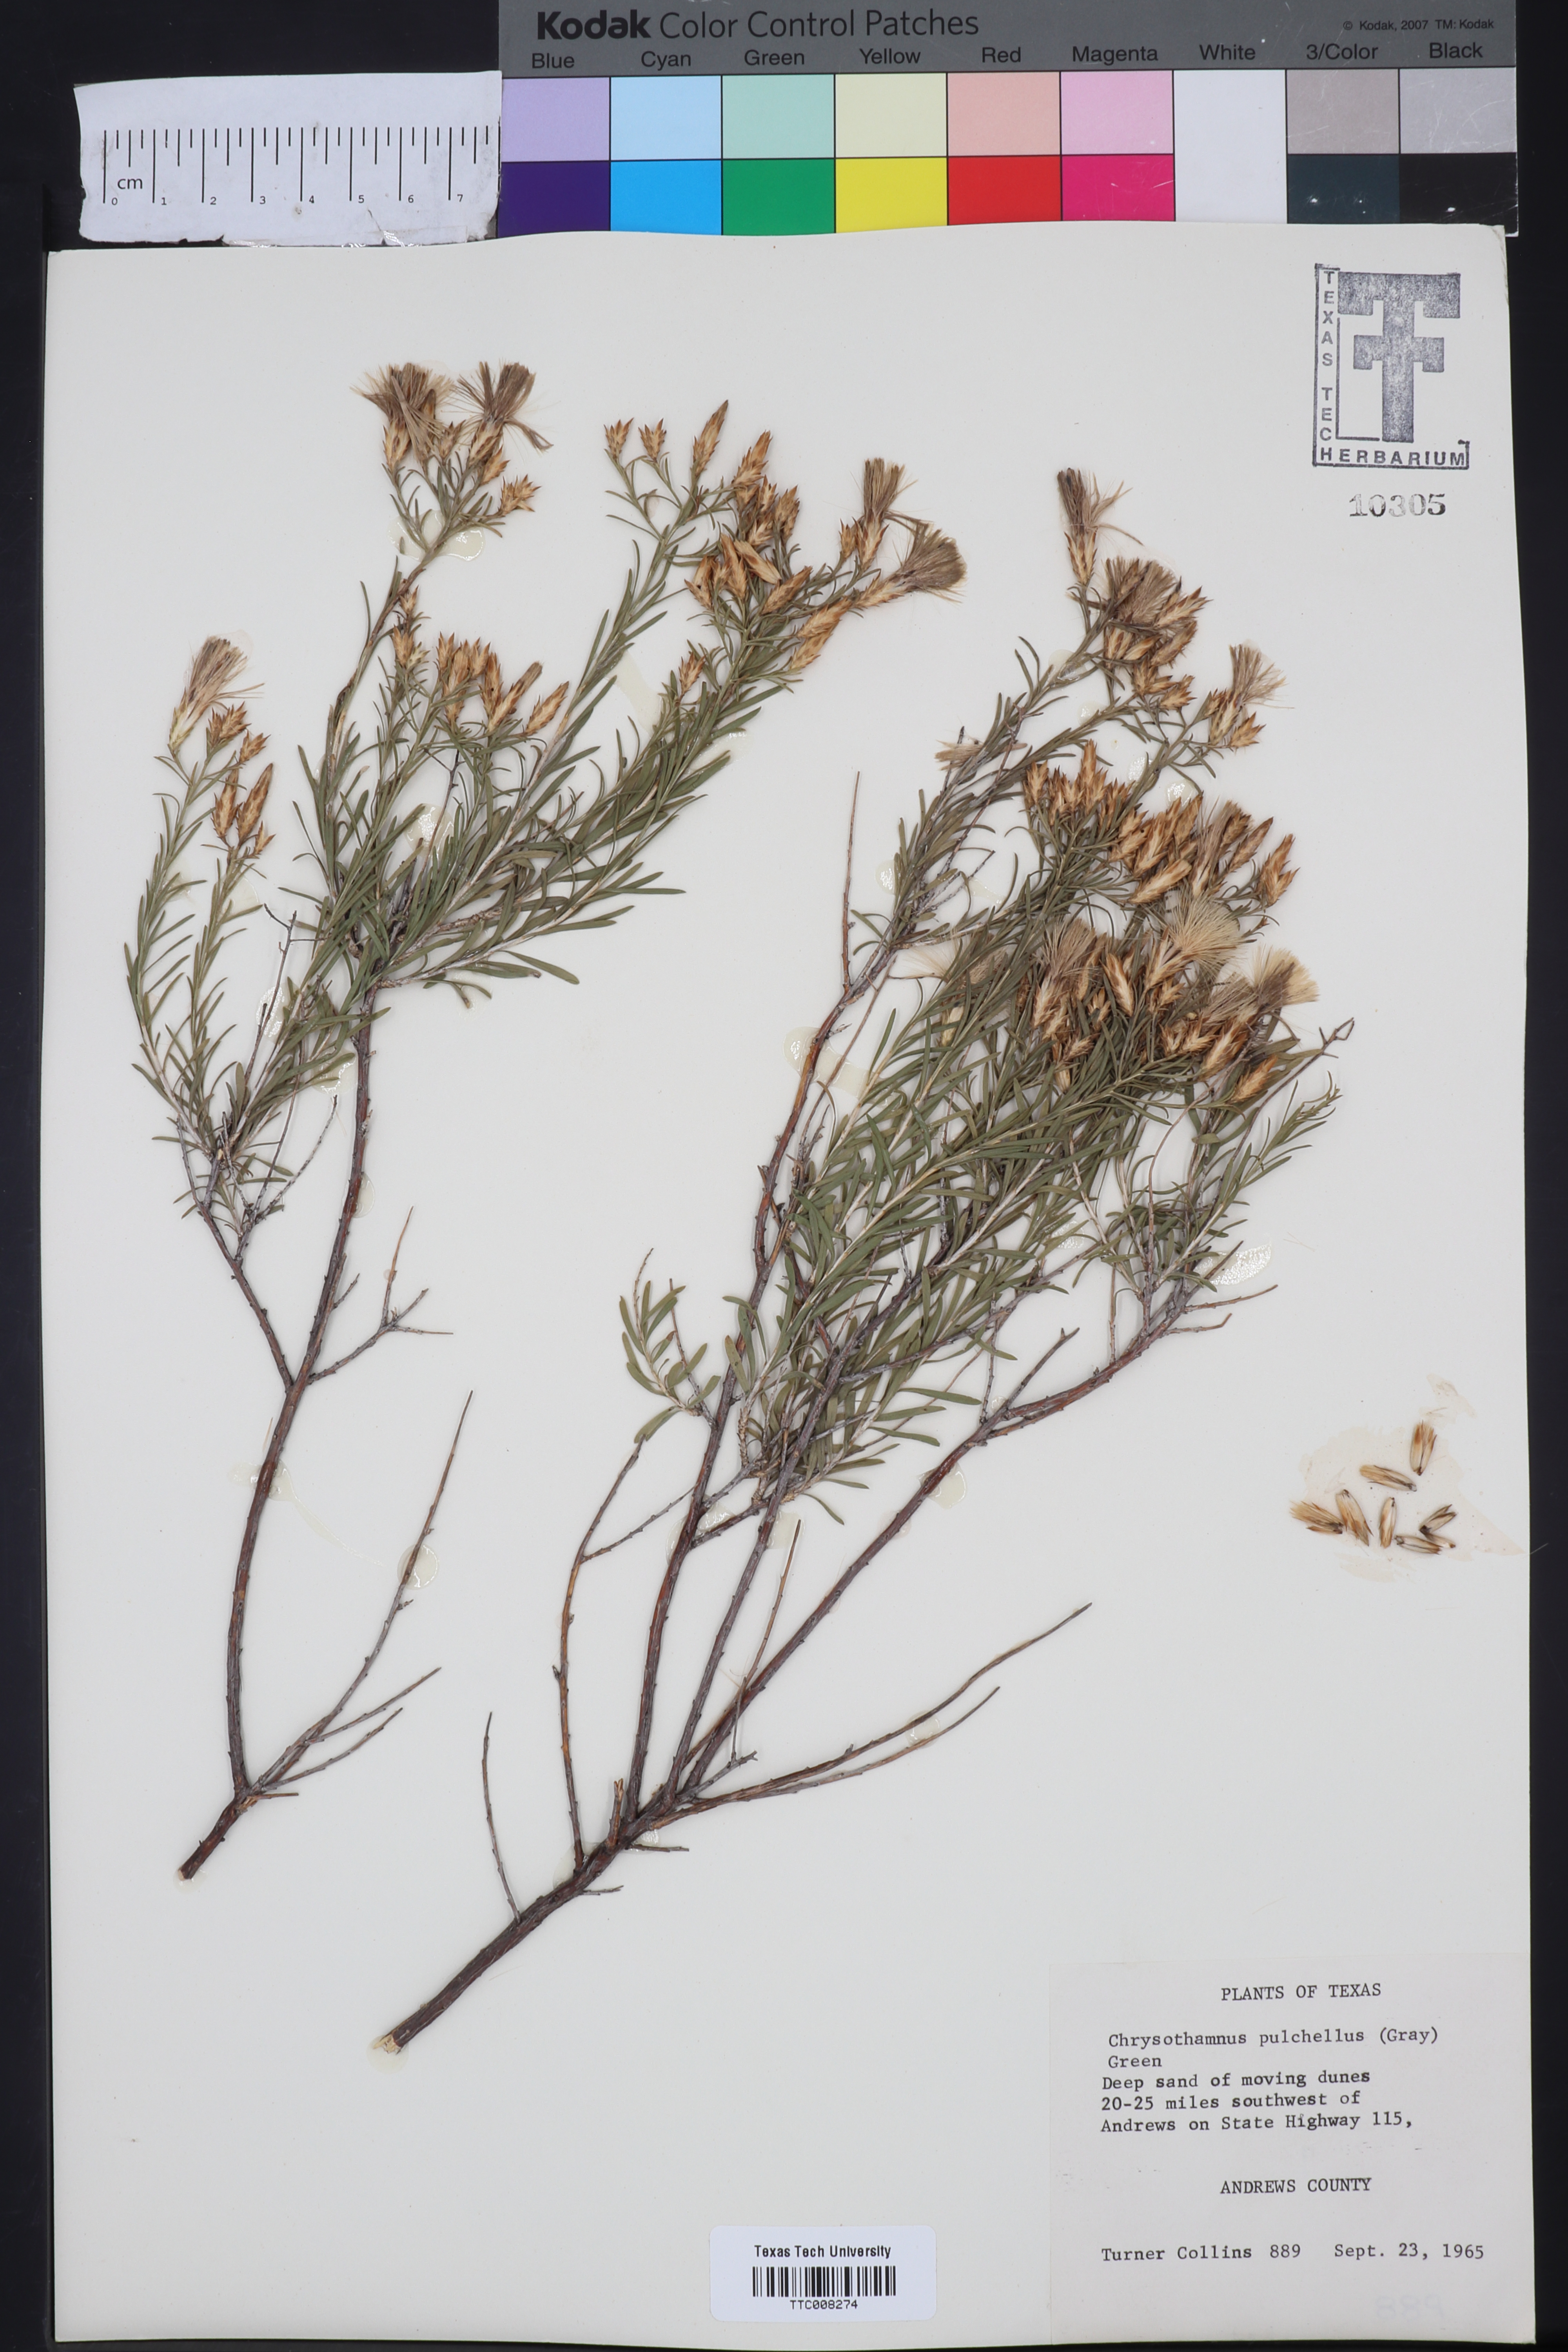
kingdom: Plantae
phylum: Tracheophyta
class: Magnoliopsida
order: Asterales
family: Asteraceae
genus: Lorandersonia
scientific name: Lorandersonia pulchella
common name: Southwestern rabbitbrush
